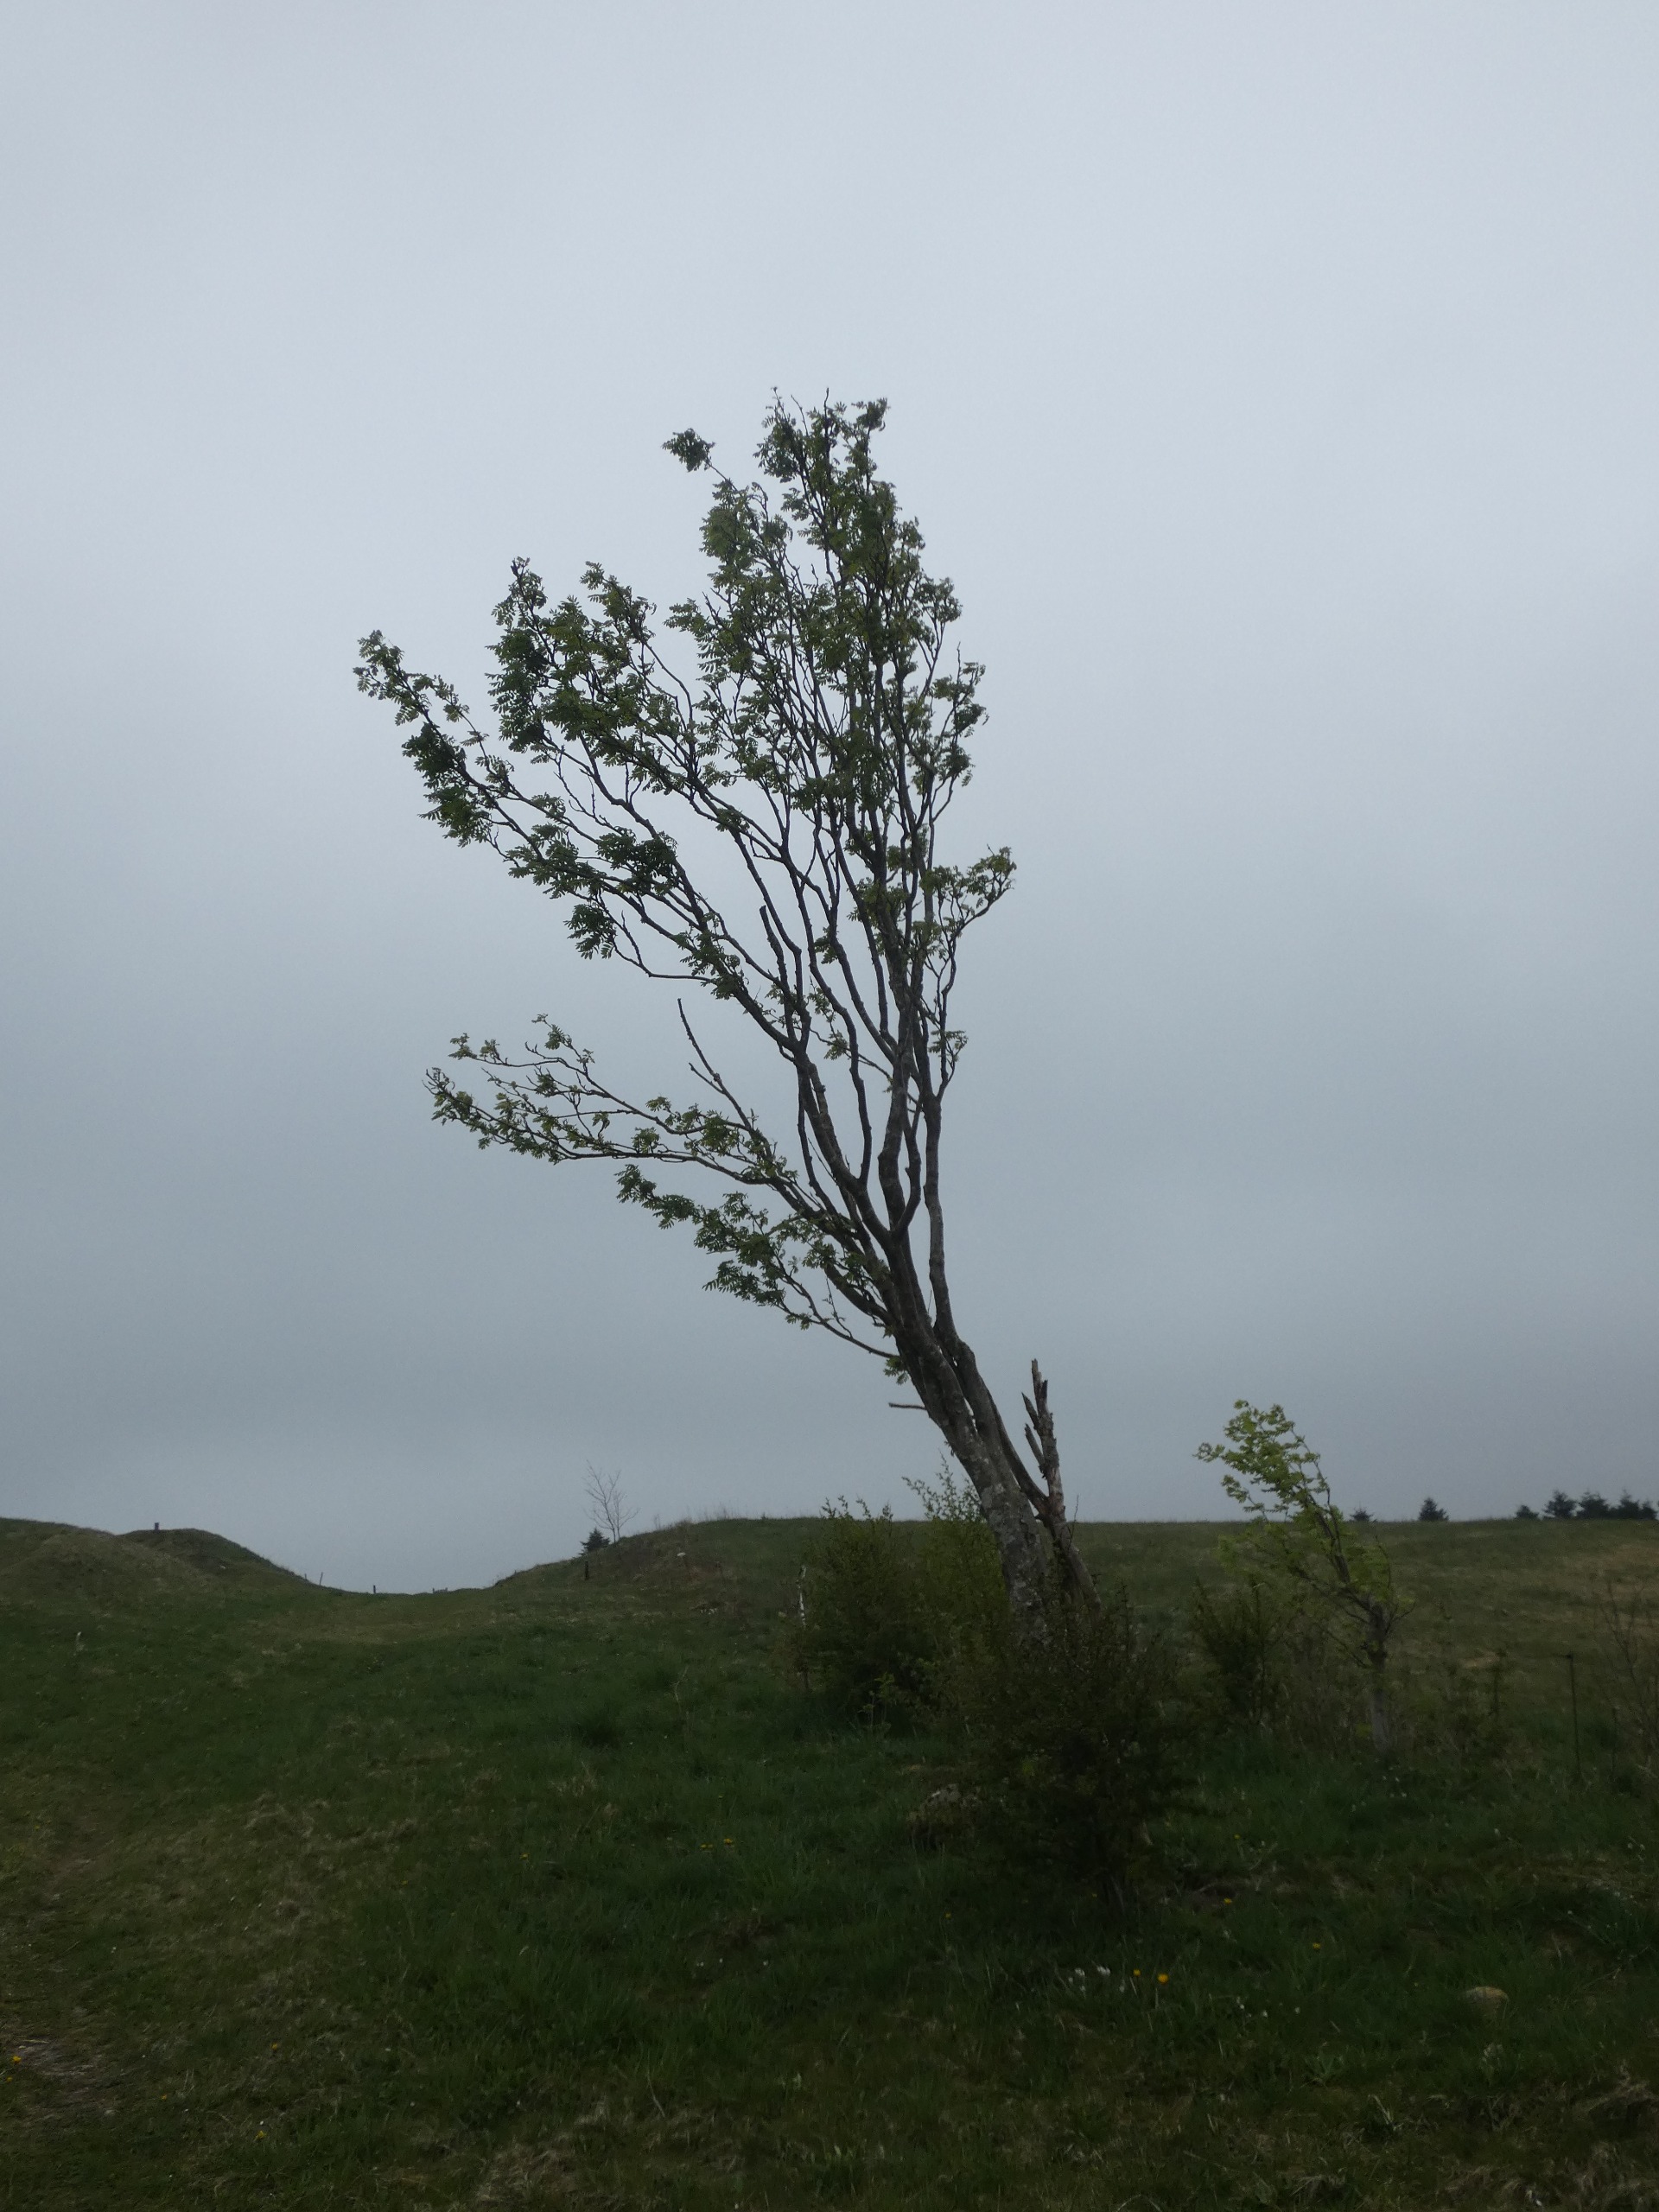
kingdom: Plantae
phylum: Tracheophyta
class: Magnoliopsida
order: Rosales
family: Rosaceae
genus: Sorbus
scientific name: Sorbus aucuparia
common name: Almindelig røn
